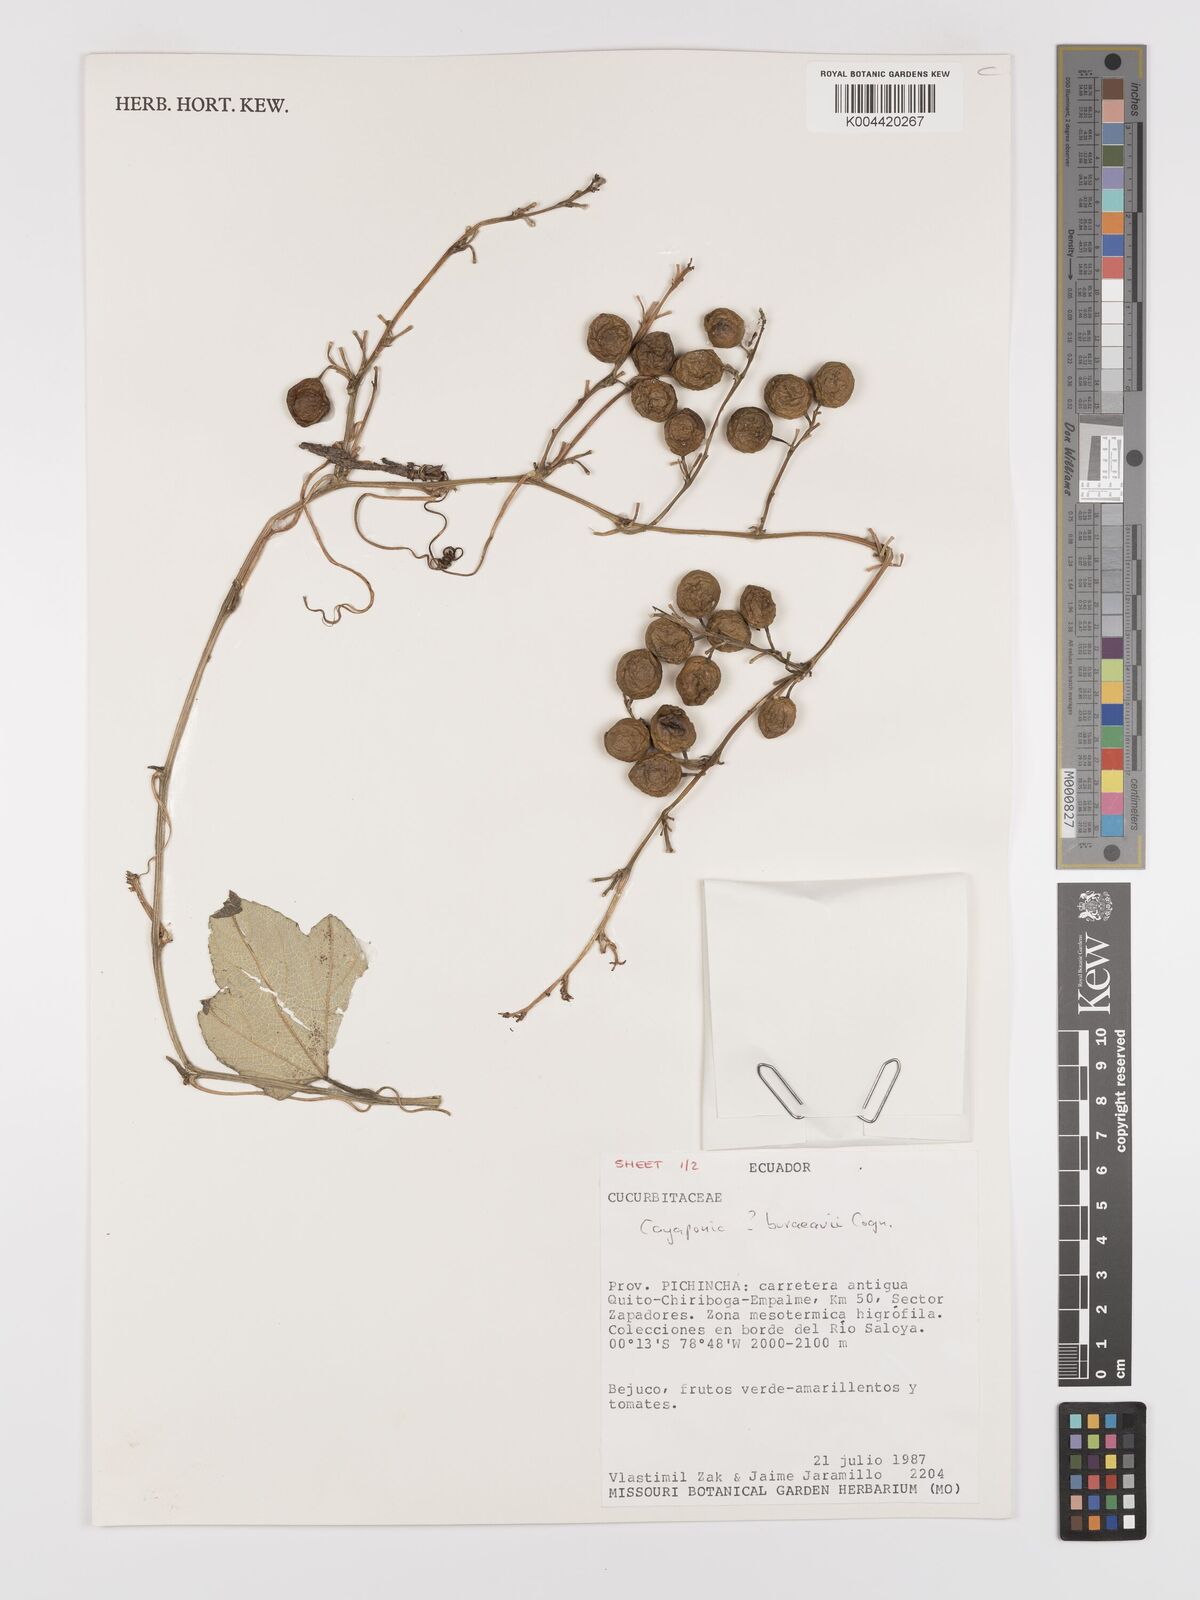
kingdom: Plantae
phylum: Tracheophyta
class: Magnoliopsida
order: Cucurbitales
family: Cucurbitaceae
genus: Cayaponia
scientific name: Cayaponia buraeavii
